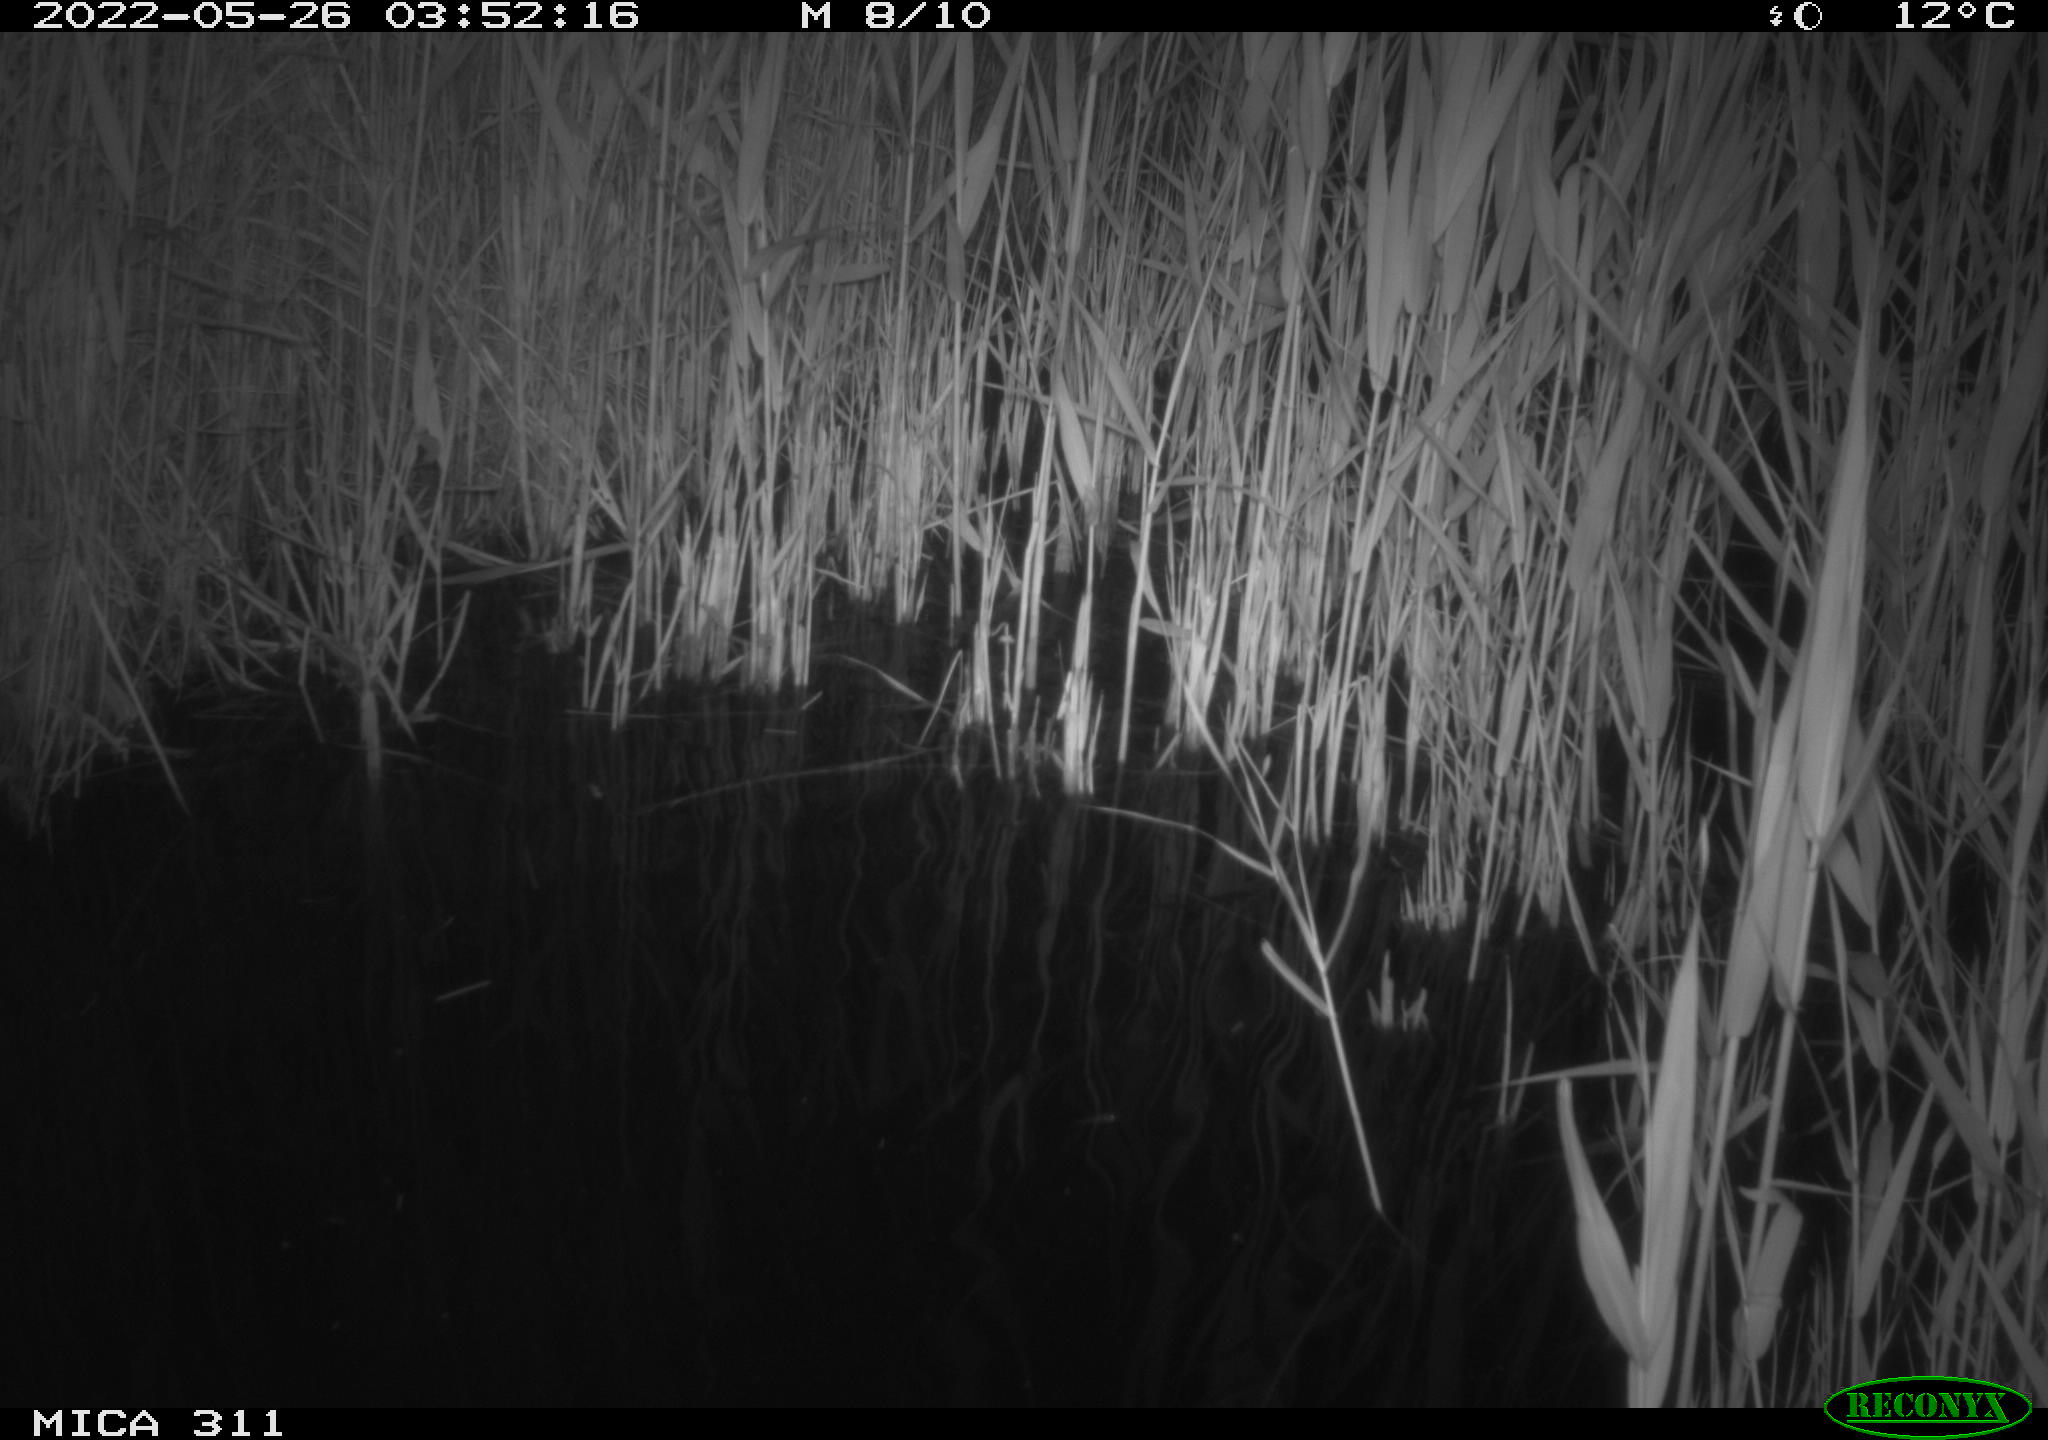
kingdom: Animalia
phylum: Chordata
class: Mammalia
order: Rodentia
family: Cricetidae
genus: Ondatra
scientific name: Ondatra zibethicus
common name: Muskrat
